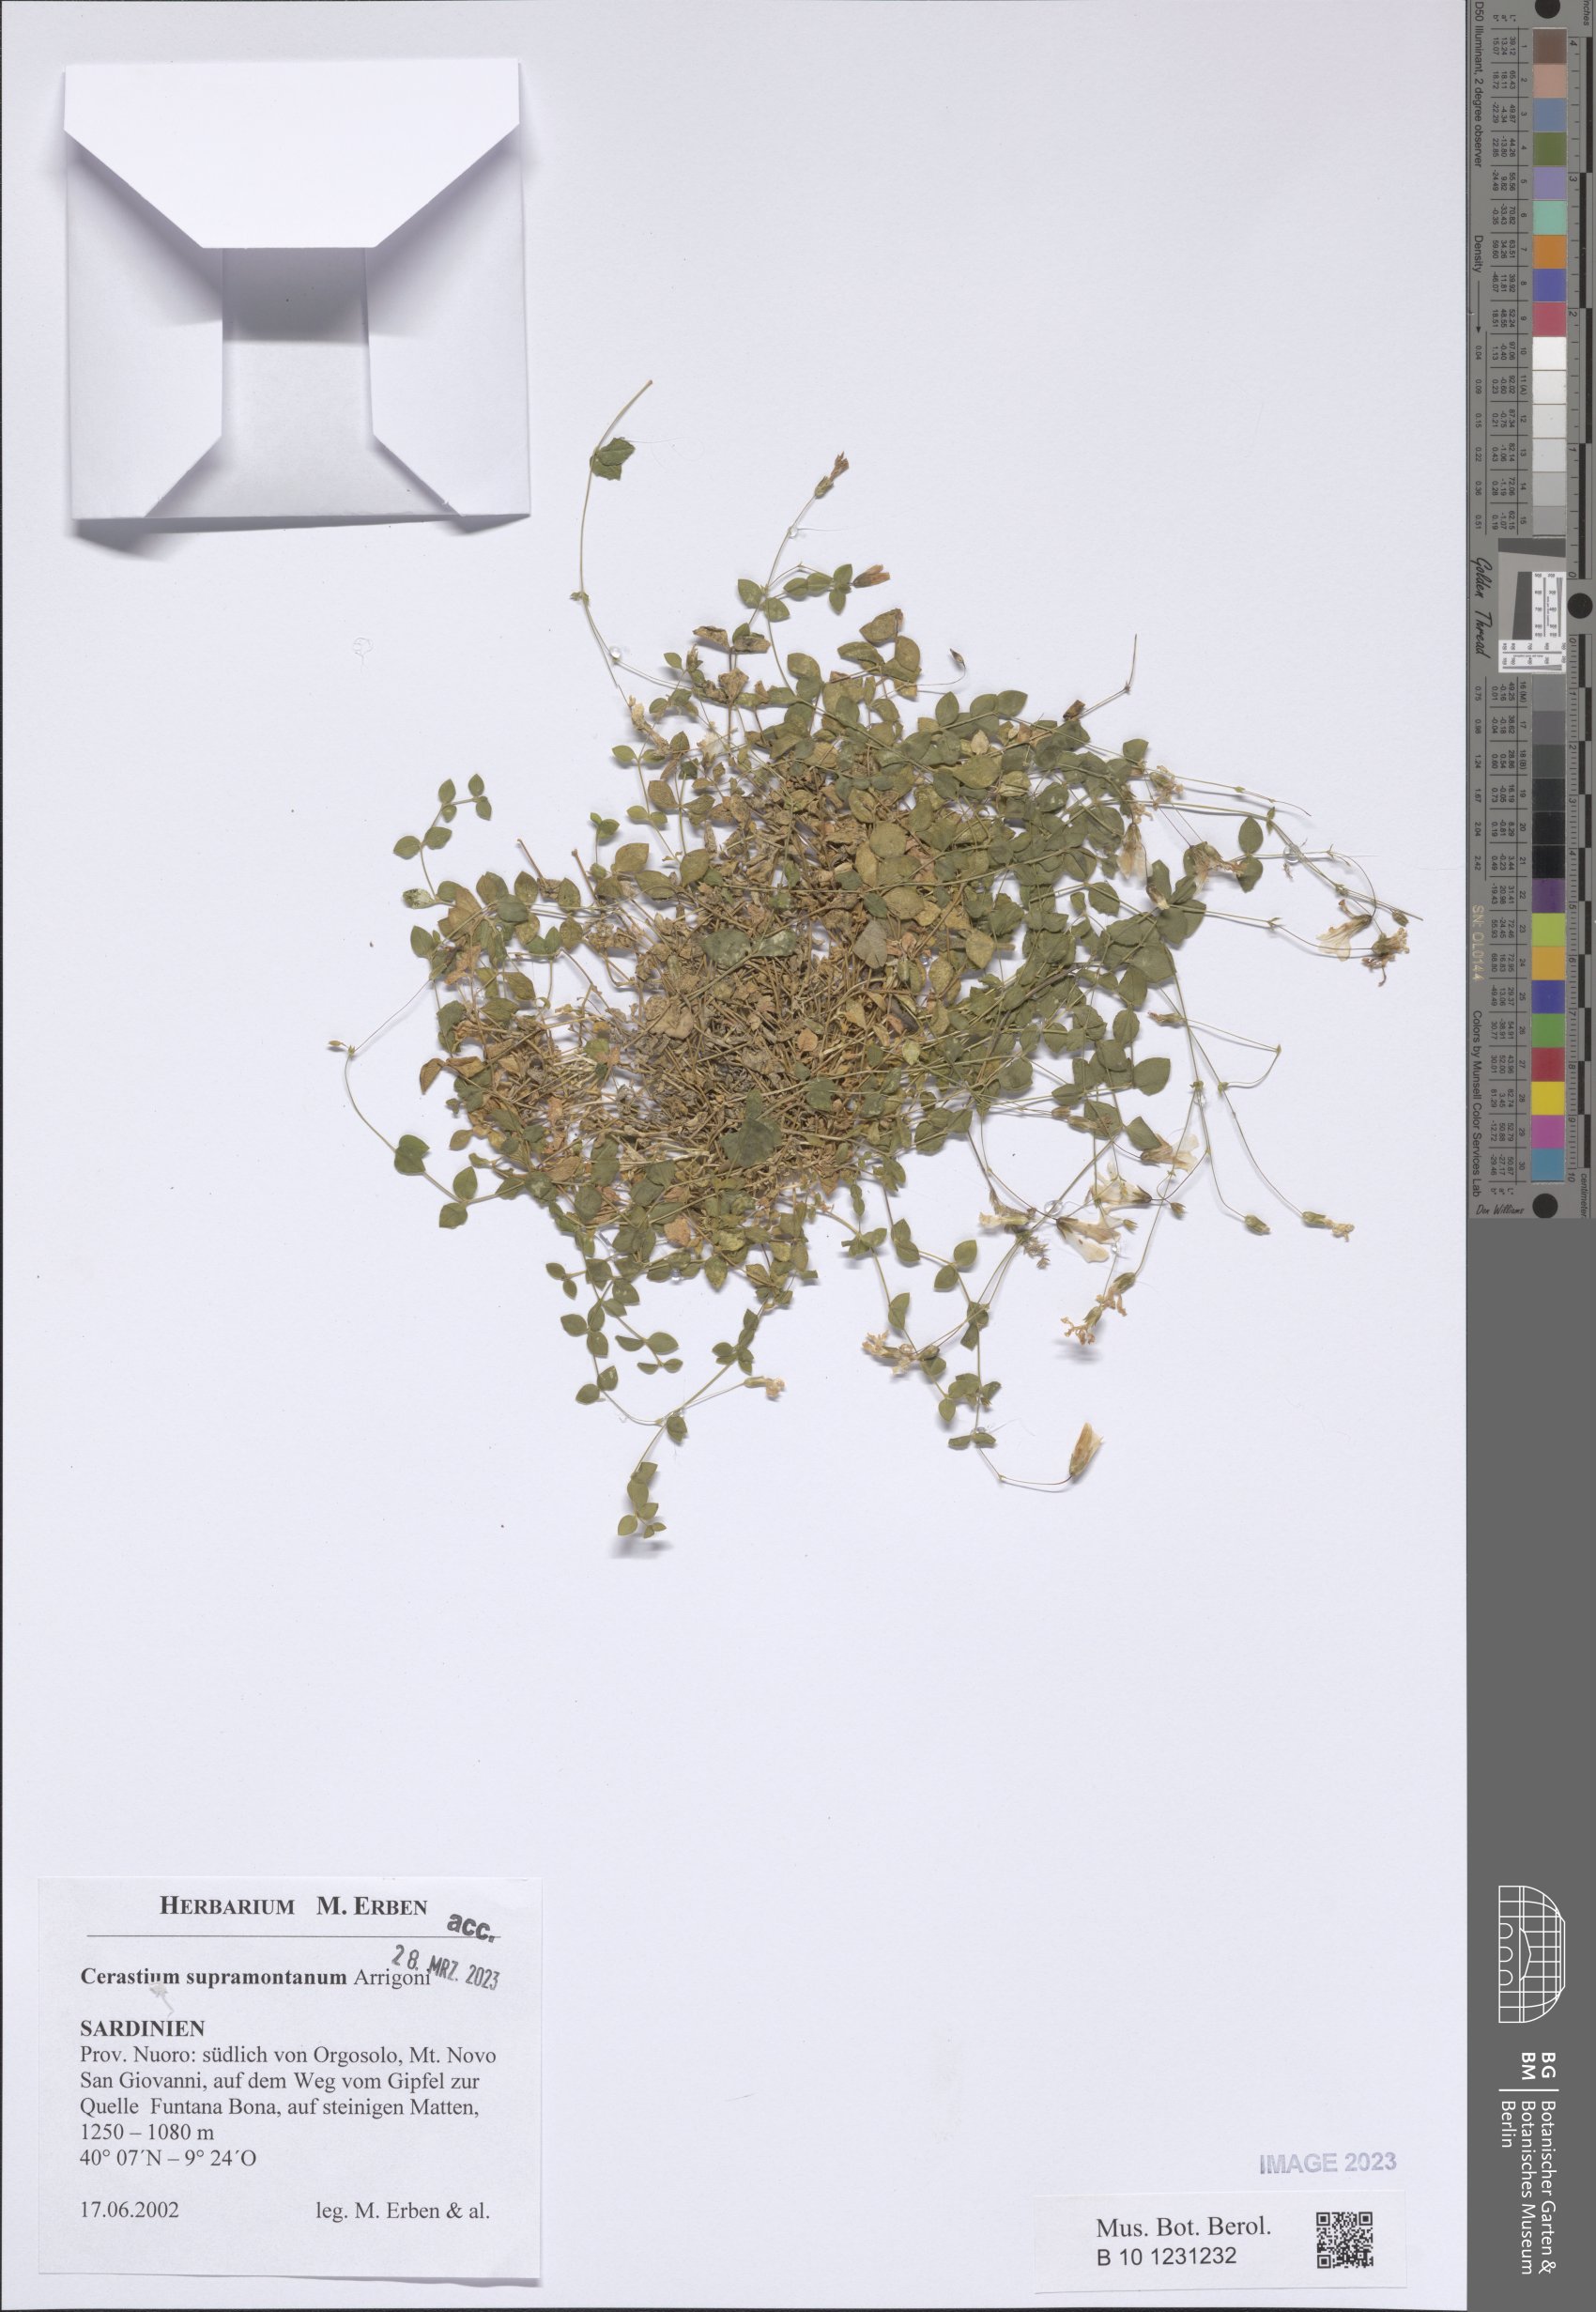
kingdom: Plantae
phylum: Tracheophyta
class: Magnoliopsida
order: Caryophyllales
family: Caryophyllaceae
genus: Cerastium
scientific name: Cerastium supramontanum
